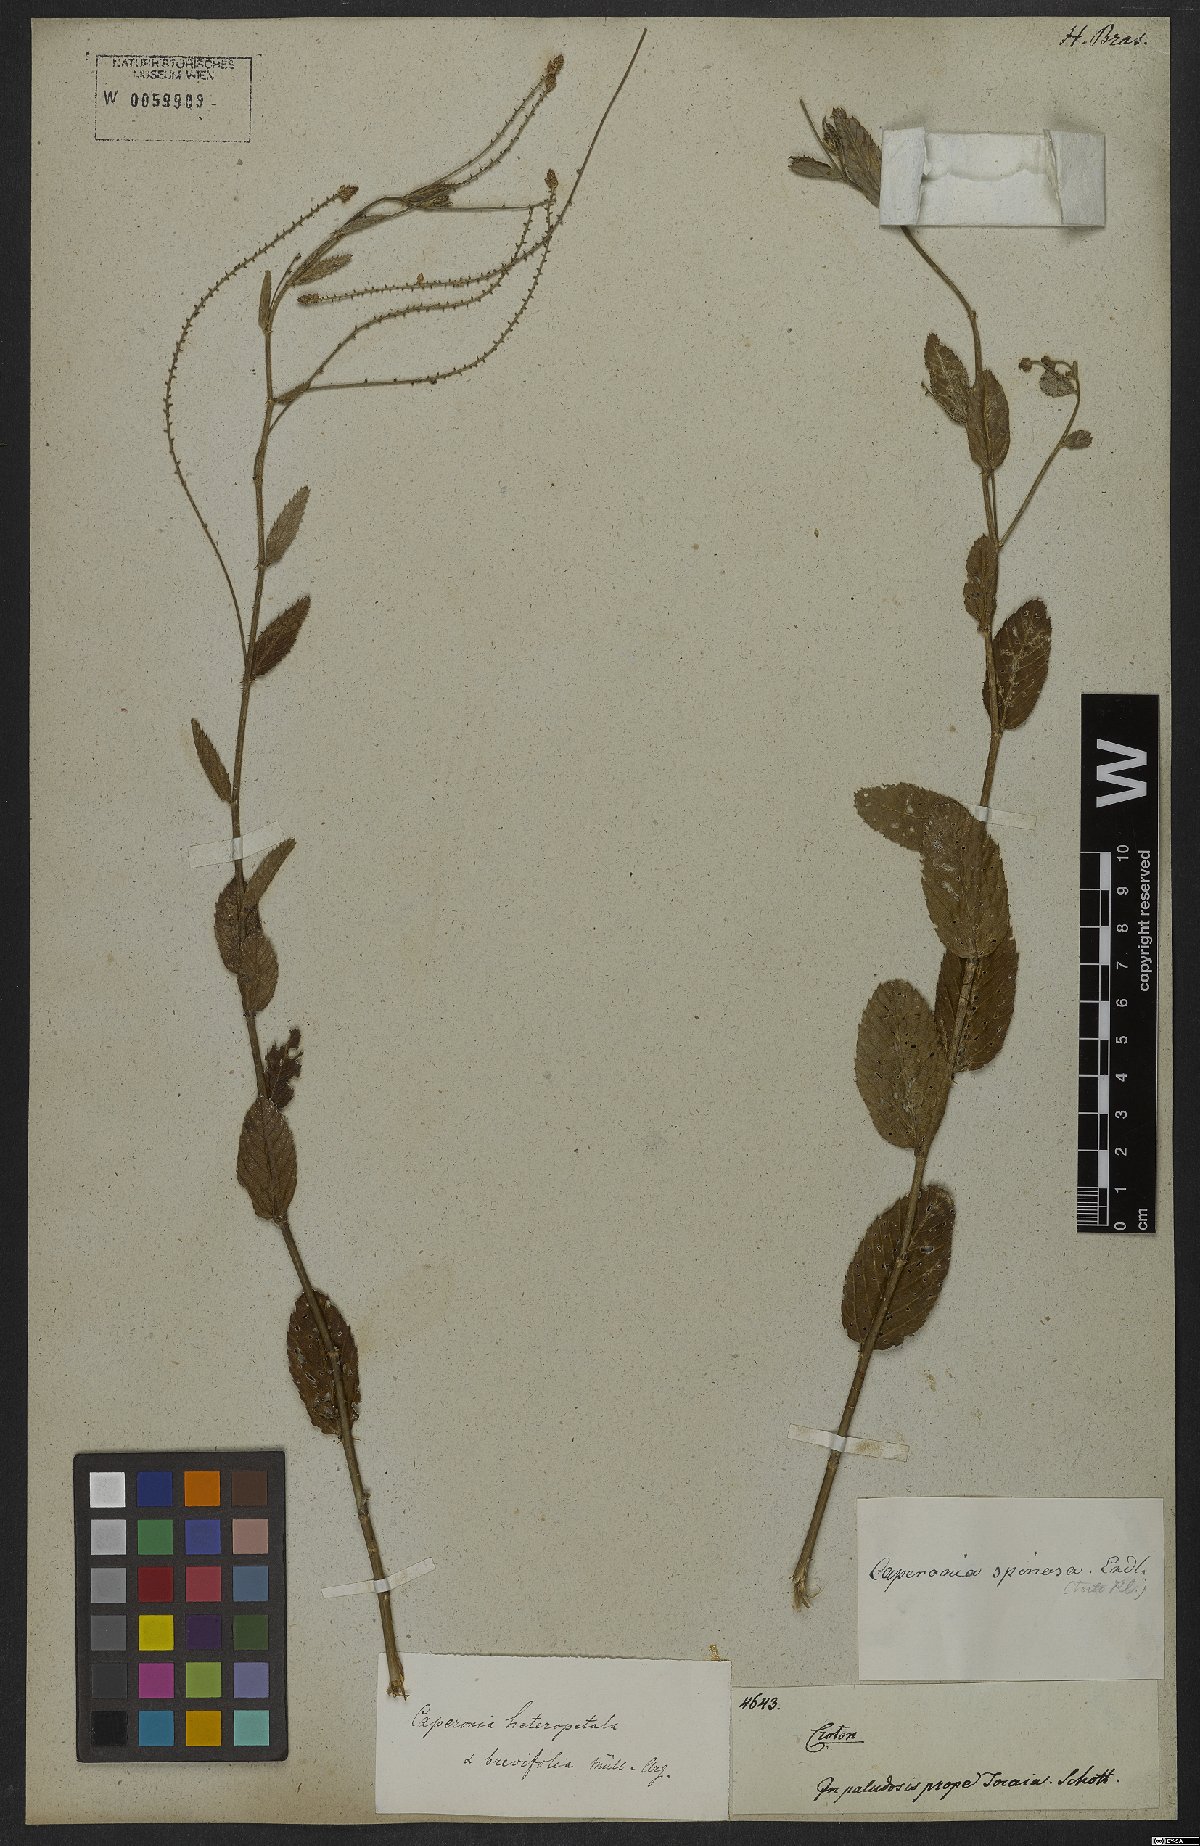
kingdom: Plantae
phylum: Tracheophyta
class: Magnoliopsida
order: Malpighiales
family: Euphorbiaceae
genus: Caperonia
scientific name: Caperonia aculeolata
